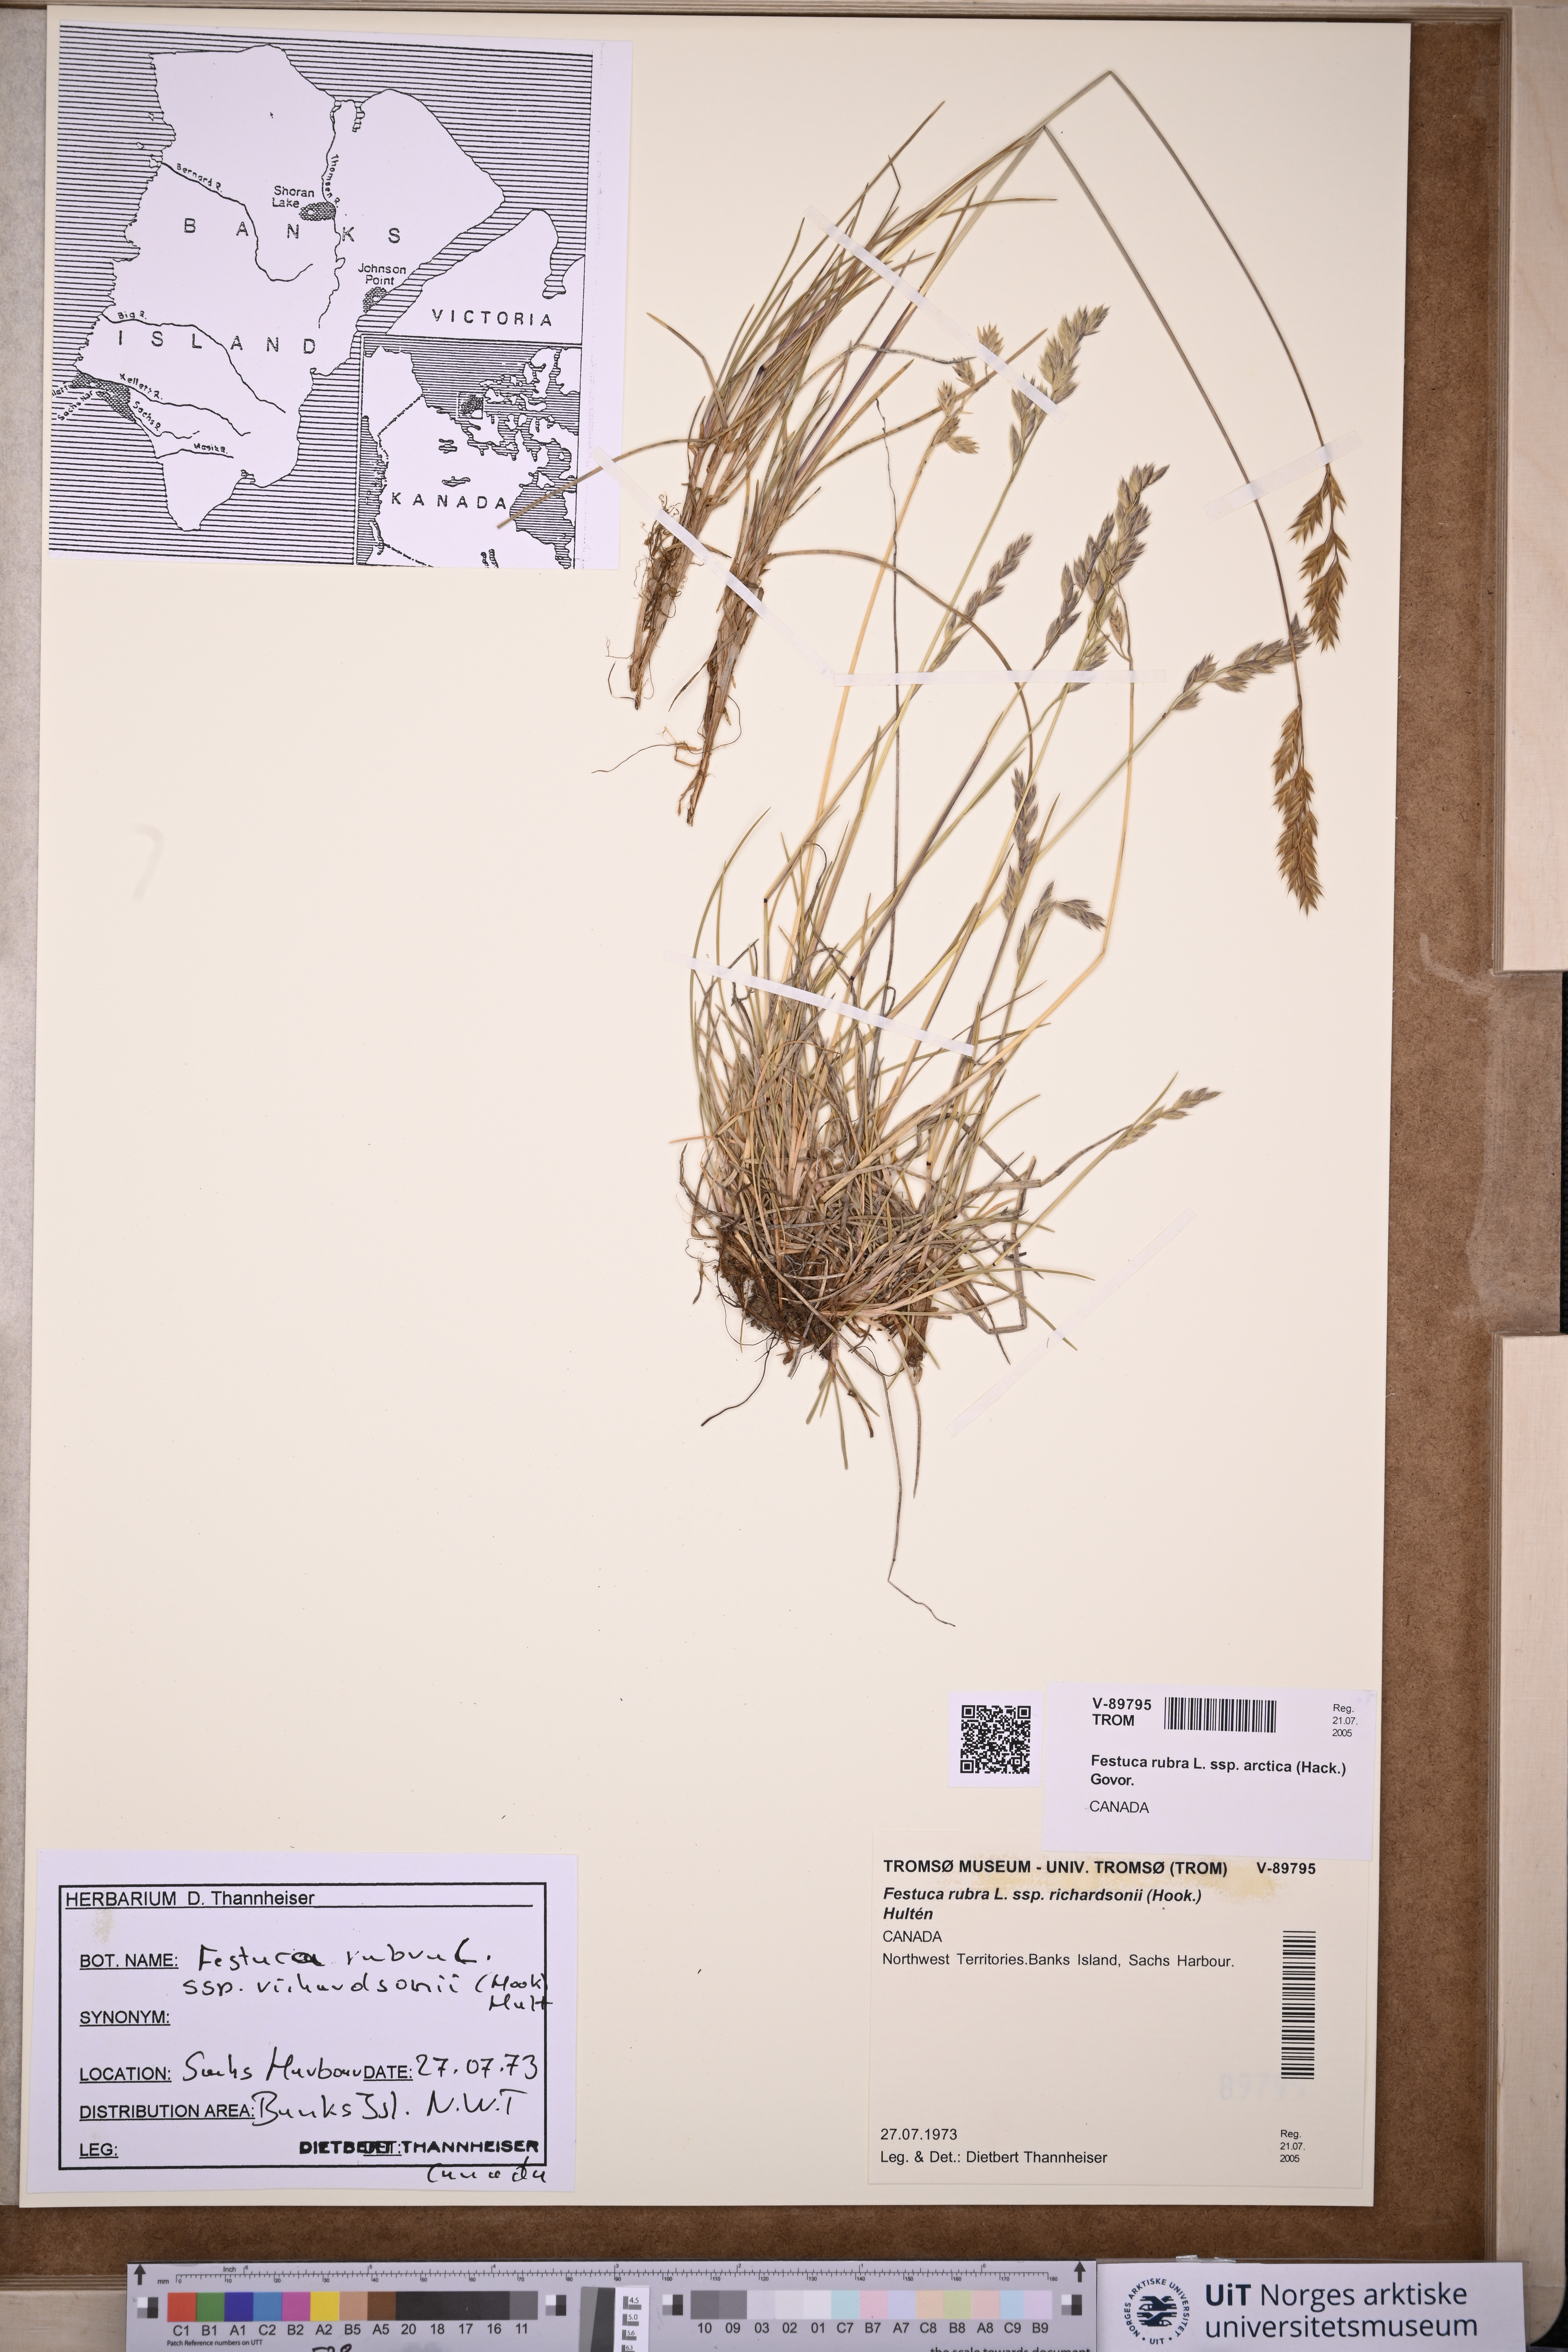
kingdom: Plantae
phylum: Tracheophyta
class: Liliopsida
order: Poales
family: Poaceae
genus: Festuca
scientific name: Festuca richardsonii
